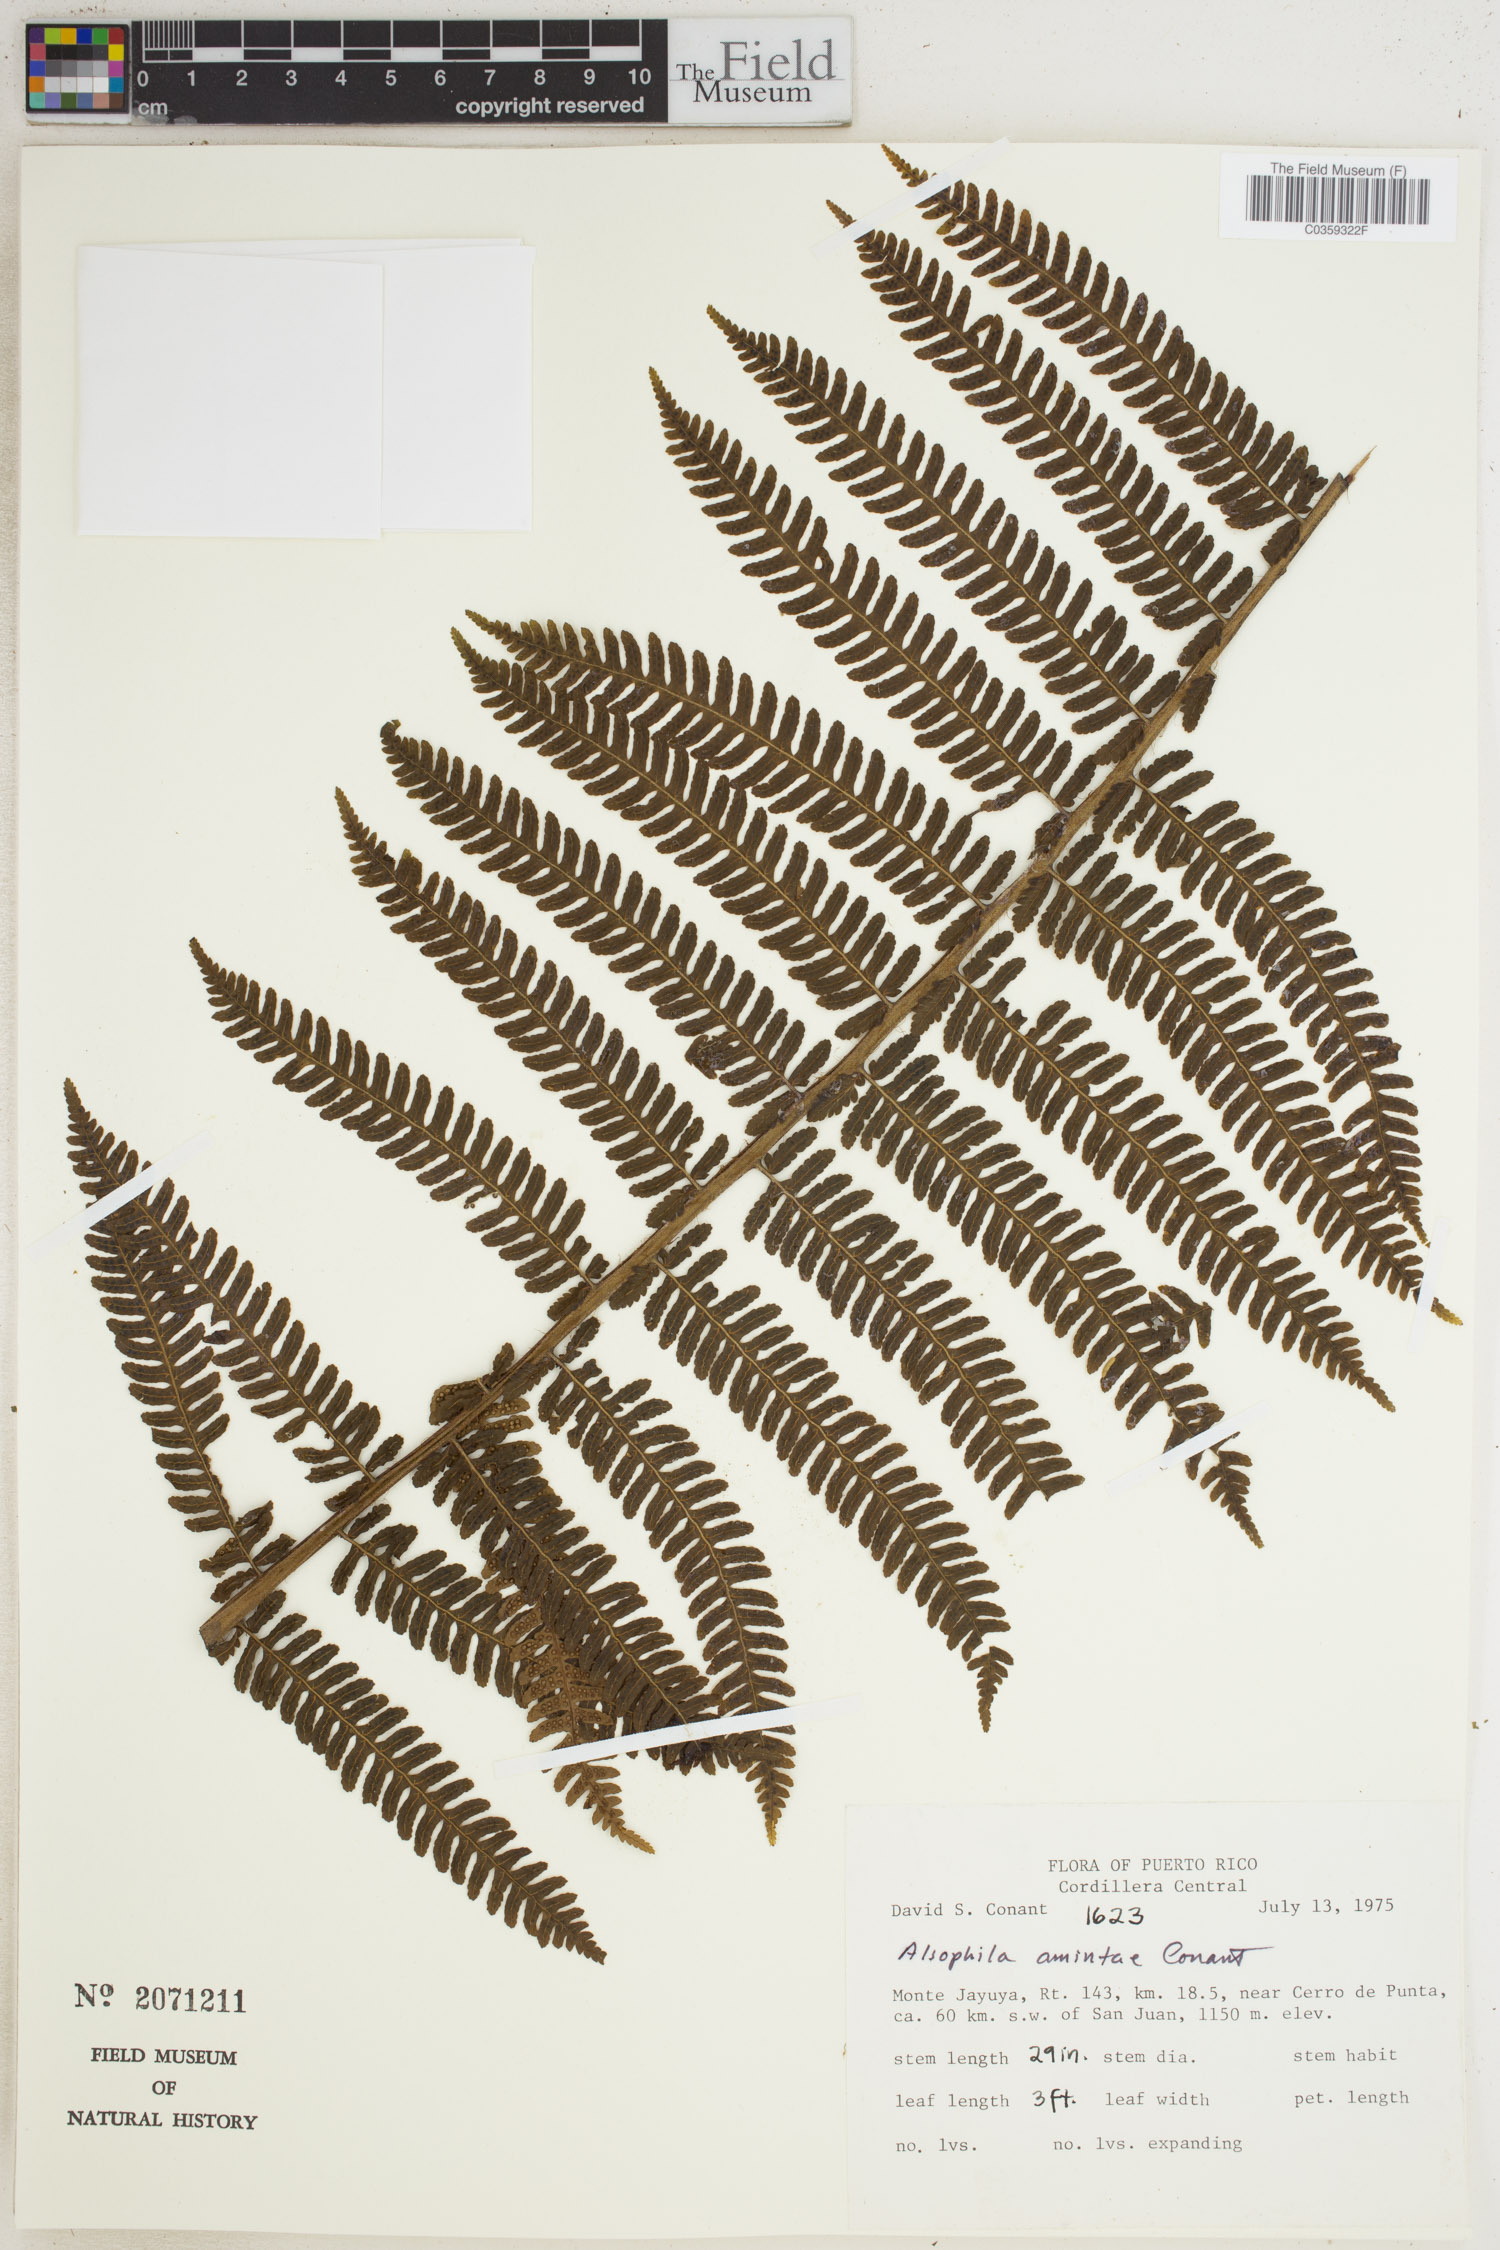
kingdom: Plantae
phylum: Tracheophyta
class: Polypodiopsida
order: Cyatheales
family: Cyatheaceae
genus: Alsophila
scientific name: Alsophila dryopteroides
